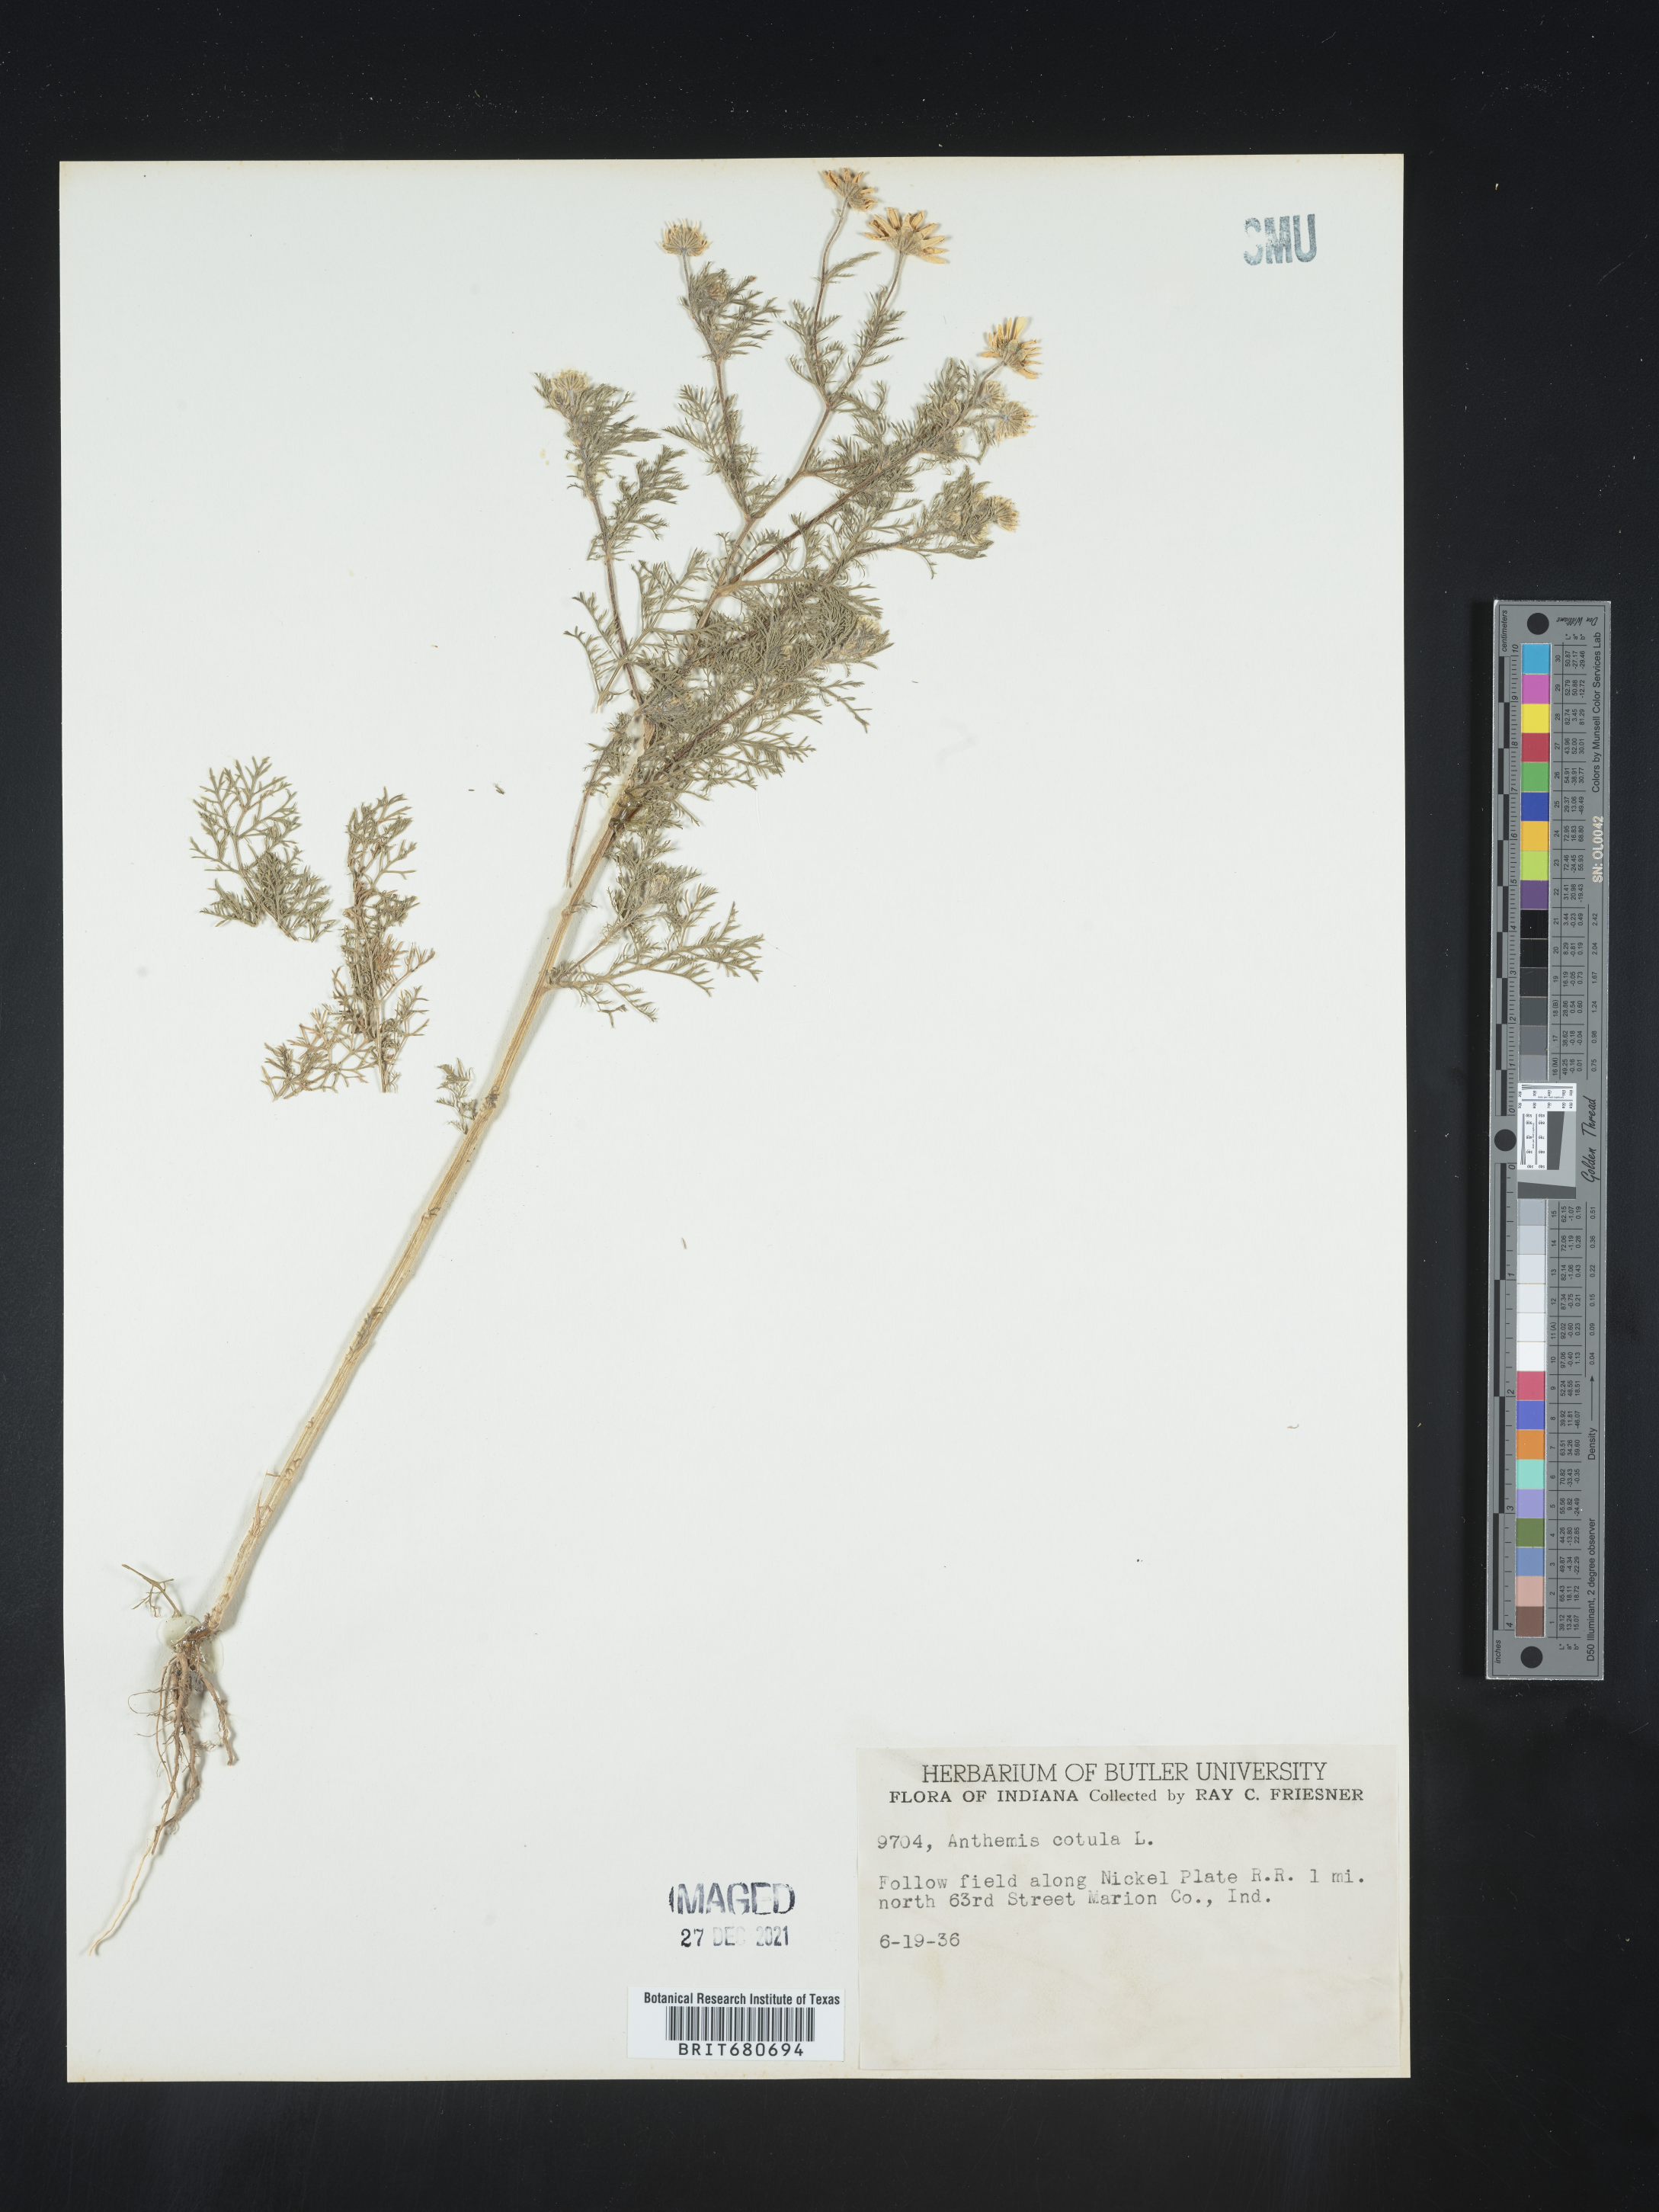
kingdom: Plantae
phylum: Tracheophyta
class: Magnoliopsida
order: Asterales
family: Asteraceae
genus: Anthemis
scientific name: Anthemis cotula
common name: Stinking chamomile
